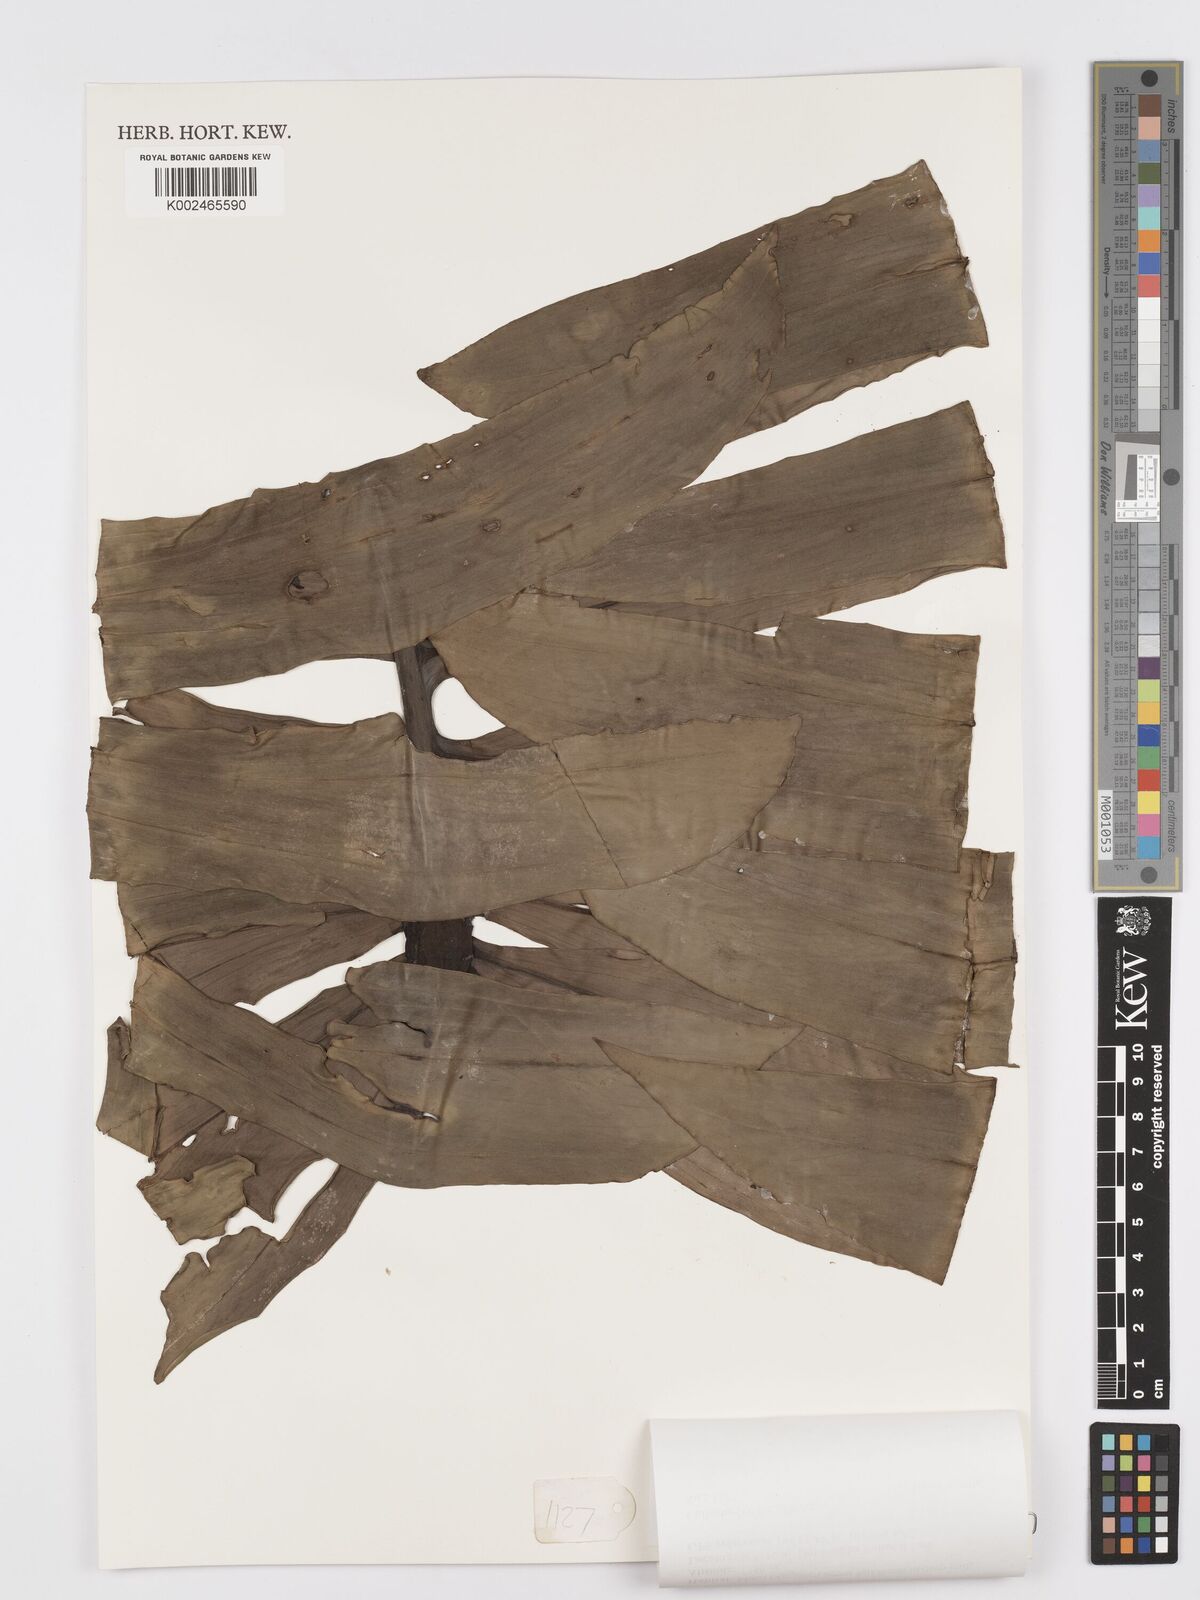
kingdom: Plantae
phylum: Tracheophyta
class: Liliopsida
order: Alismatales
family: Araceae
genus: Rhaphidophora
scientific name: Rhaphidophora decursiva
